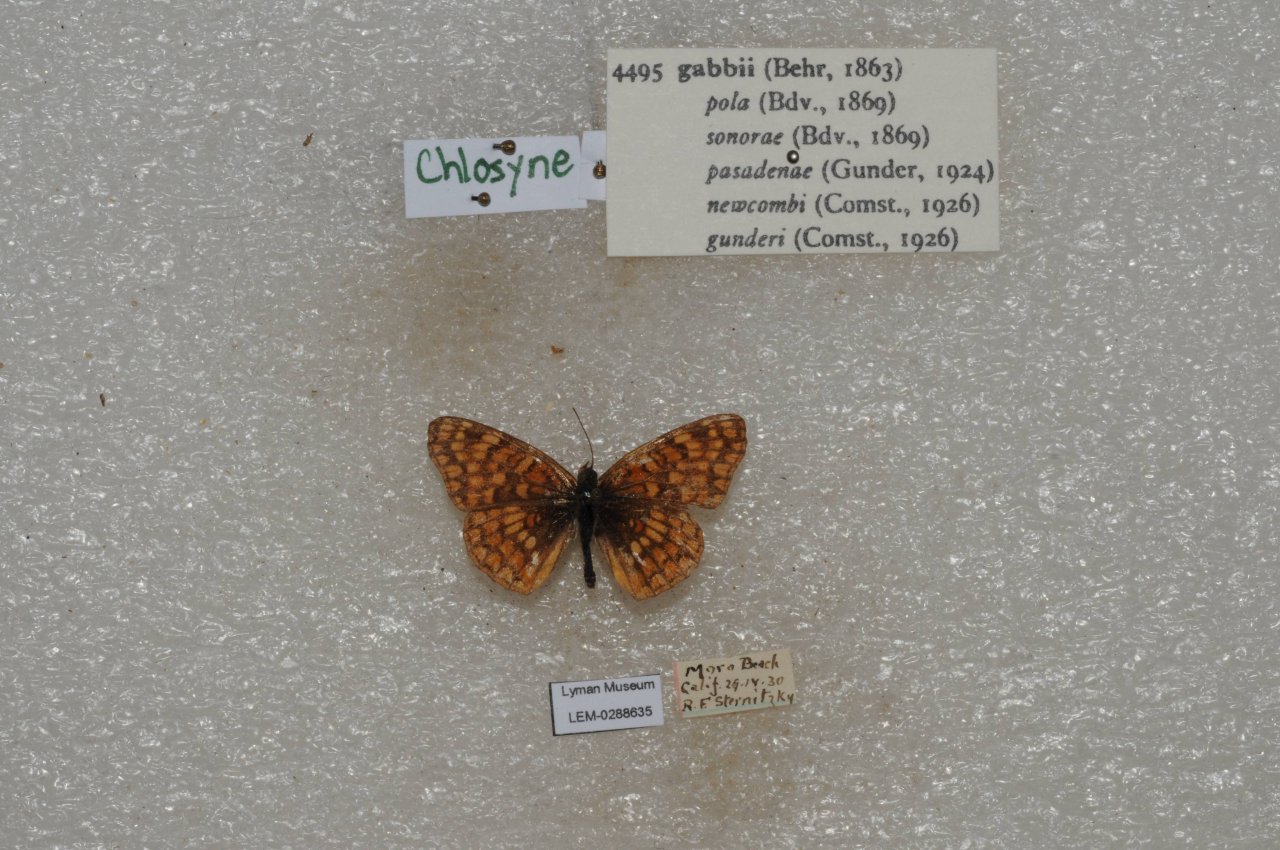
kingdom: Animalia
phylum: Arthropoda
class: Insecta
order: Lepidoptera
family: Nymphalidae
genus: Chlosyne
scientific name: Chlosyne gabbii
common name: Gabb's Checkerspot
